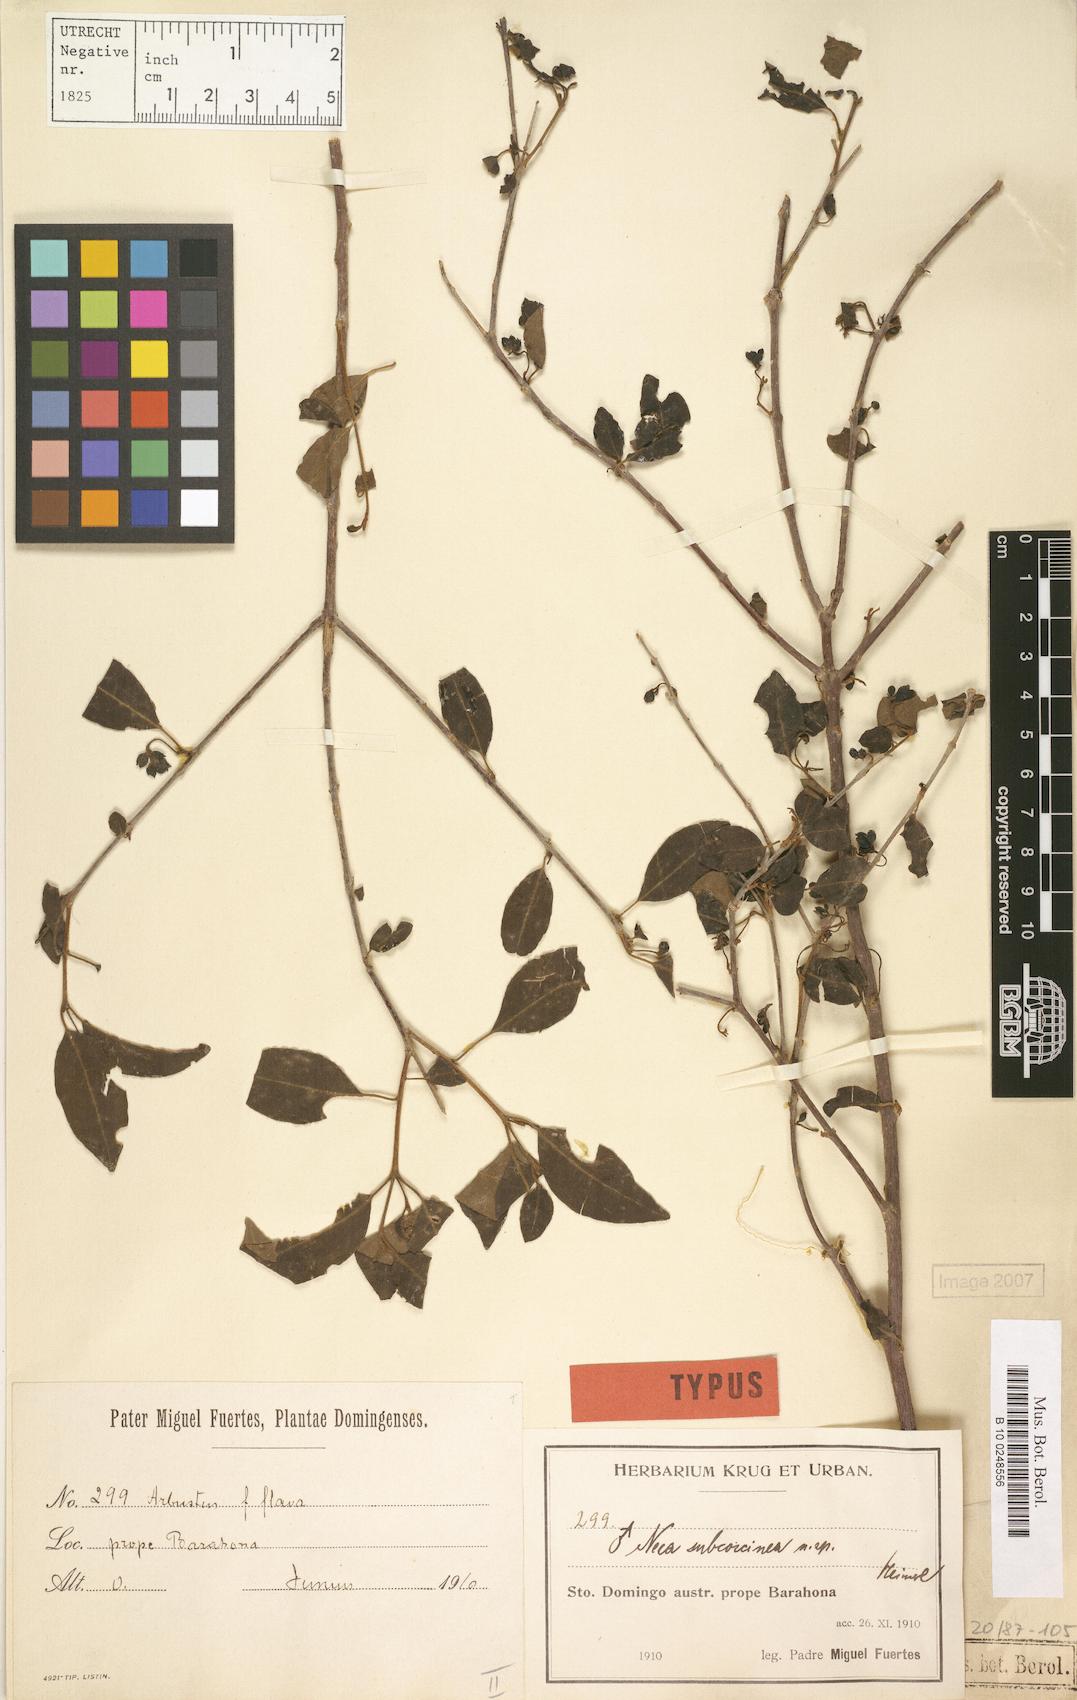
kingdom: Plantae
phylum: Tracheophyta
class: Magnoliopsida
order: Caryophyllales
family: Nyctaginaceae
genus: Neea
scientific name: Neea subcoccinea
